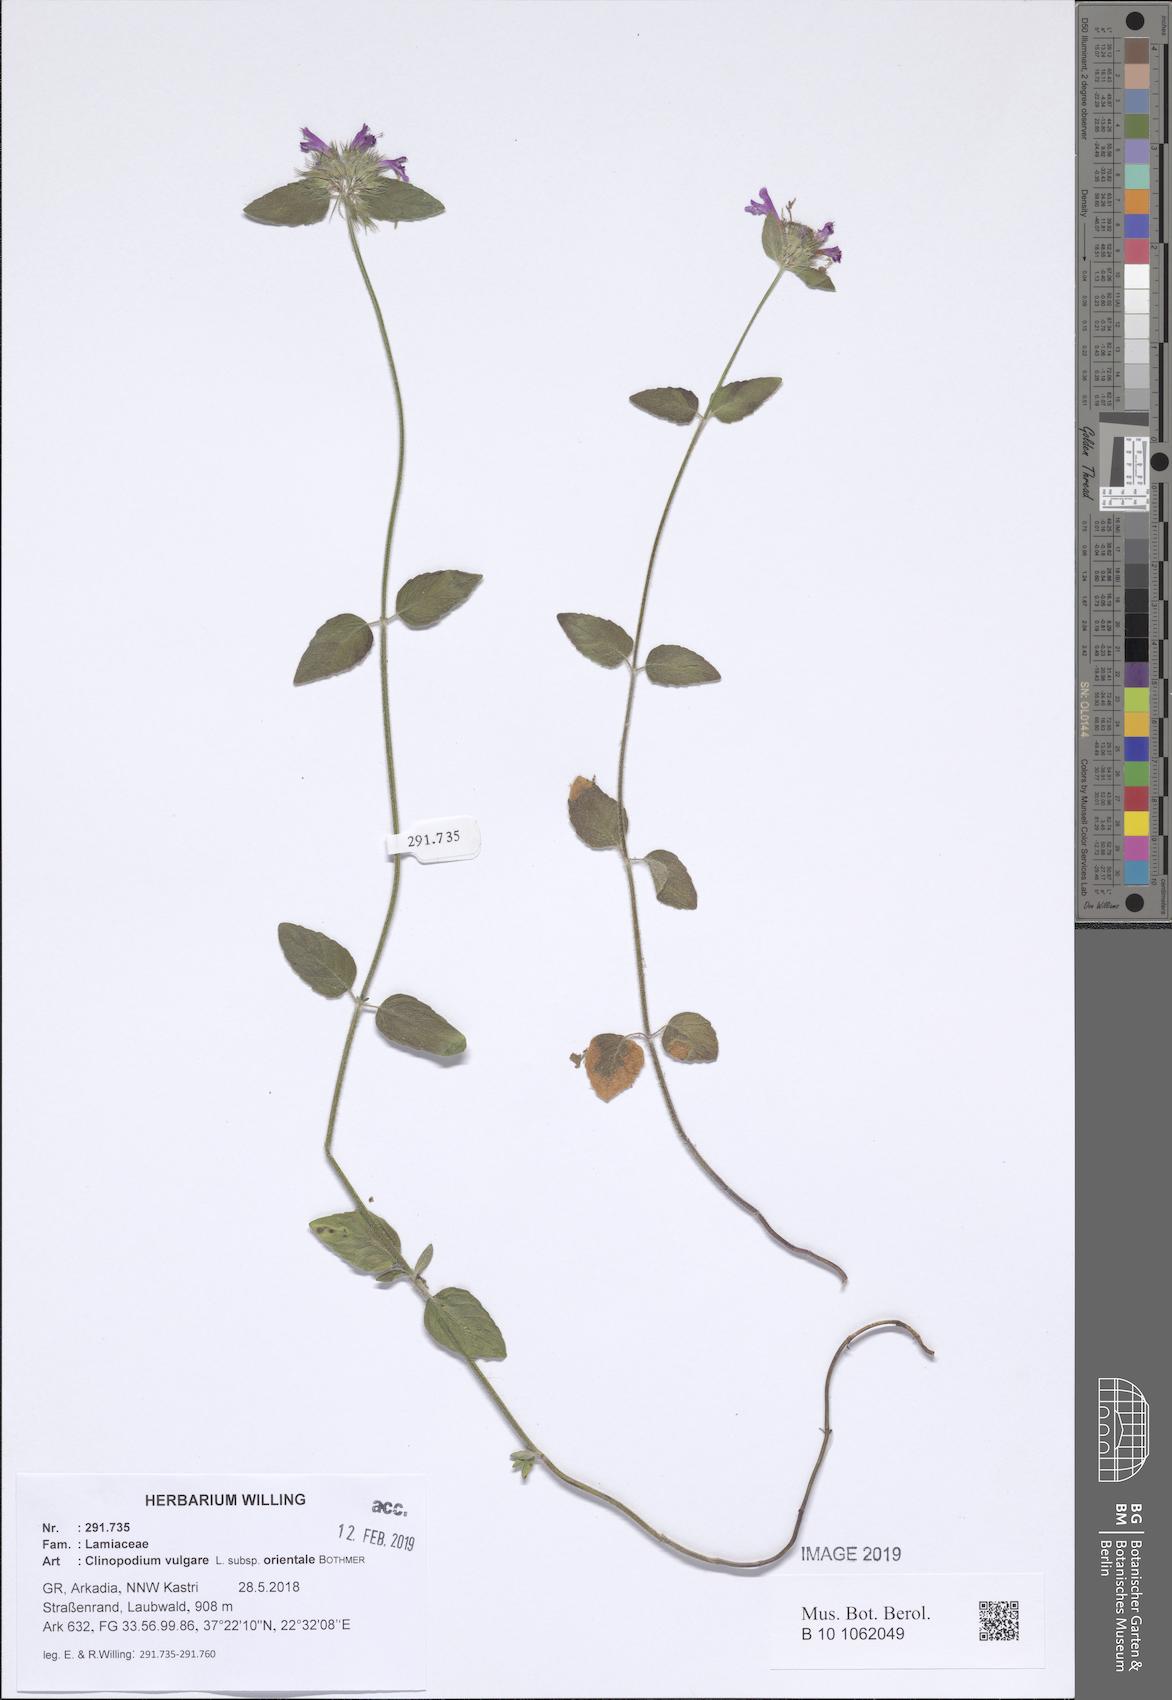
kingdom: Plantae
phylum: Tracheophyta
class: Magnoliopsida
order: Lamiales
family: Lamiaceae
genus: Clinopodium
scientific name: Clinopodium vulgare
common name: Wild basil
